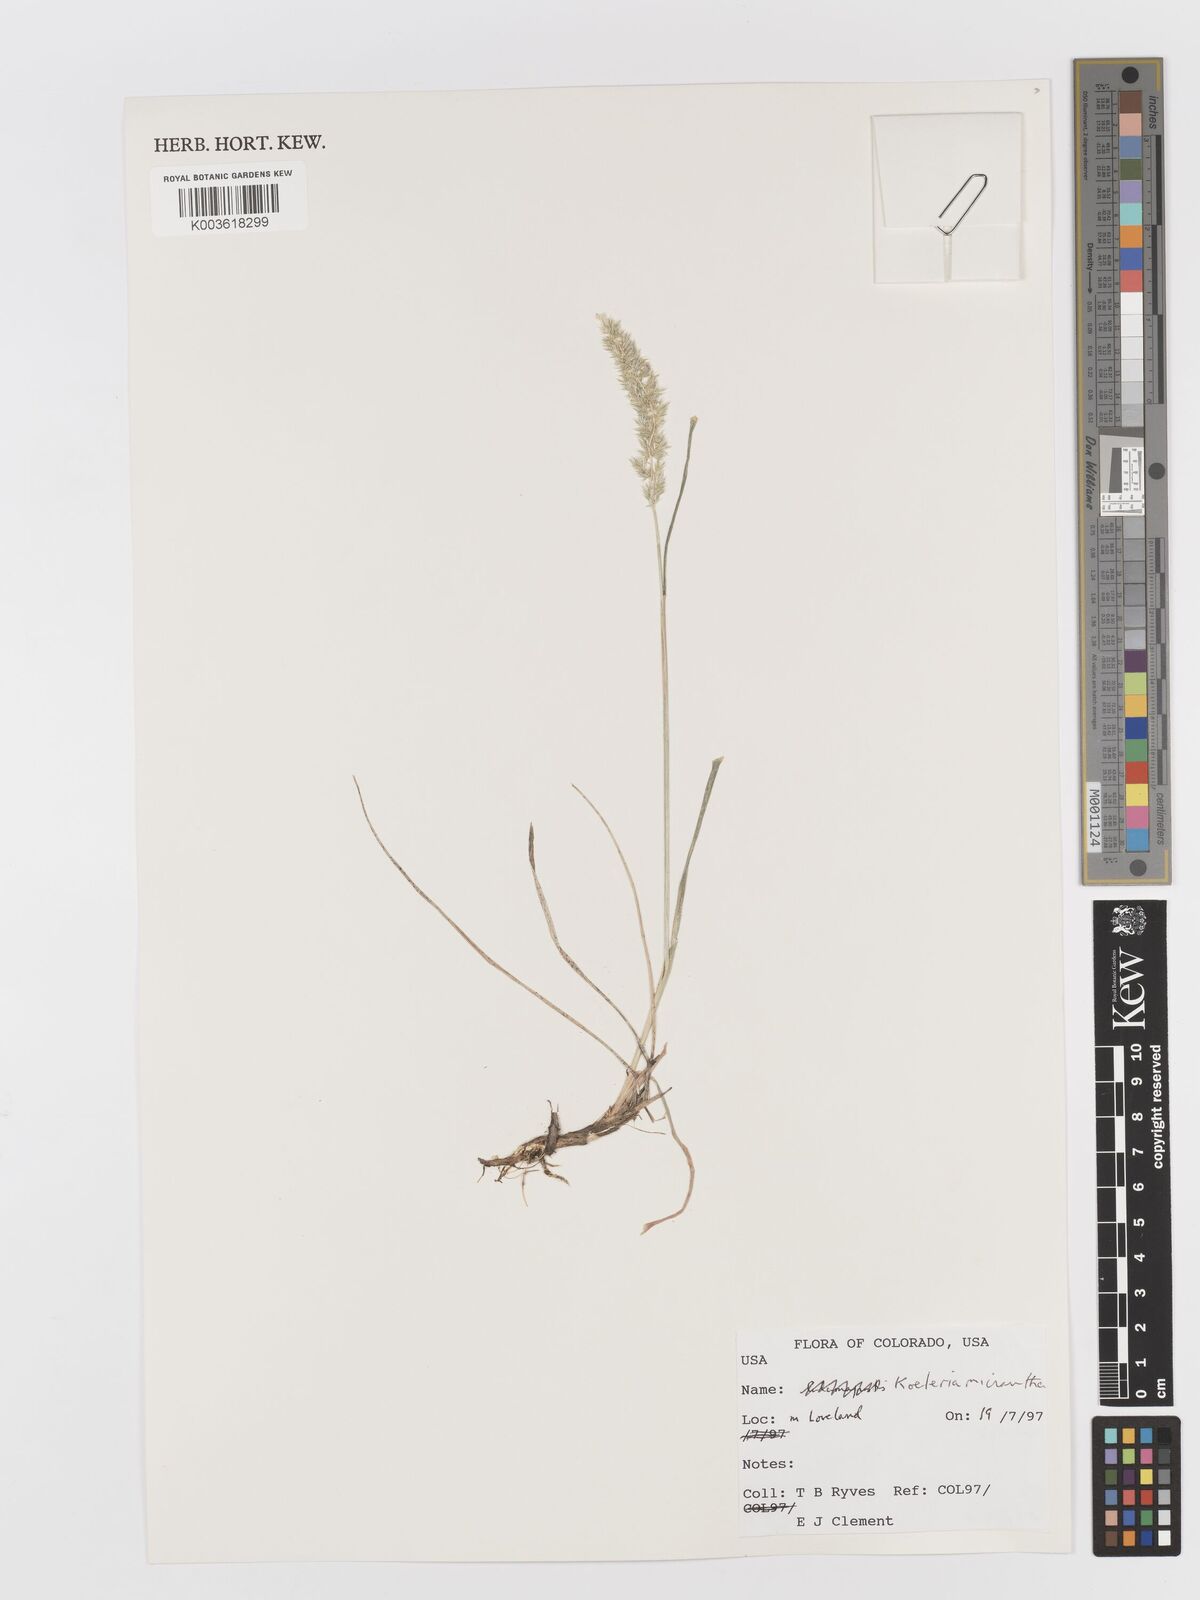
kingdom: Plantae
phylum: Tracheophyta
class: Liliopsida
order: Poales
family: Poaceae
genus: Koeleria
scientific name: Koeleria macrantha
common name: Crested hair-grass
